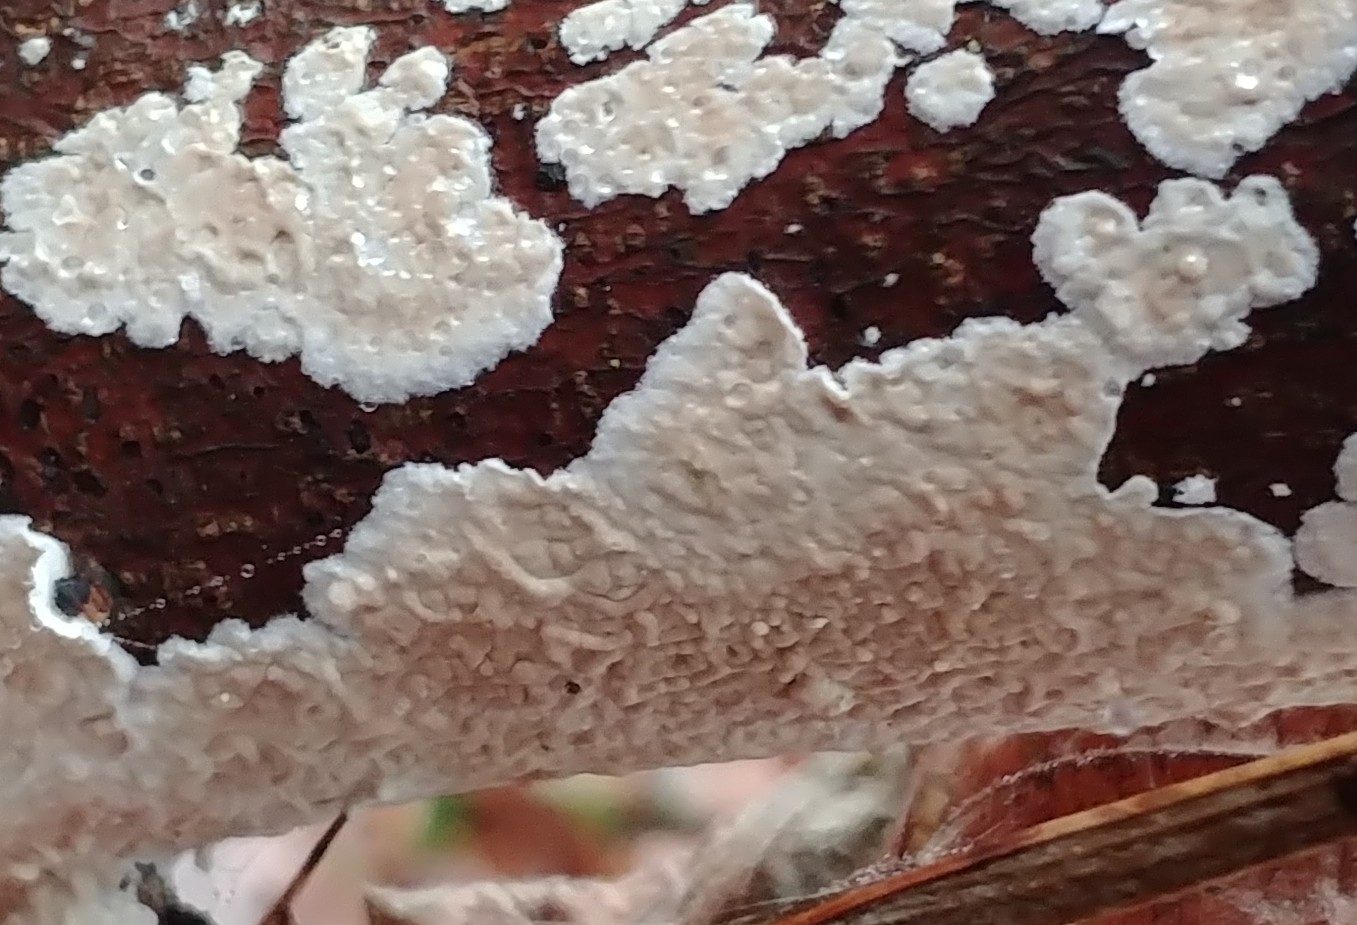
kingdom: Fungi
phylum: Basidiomycota
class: Agaricomycetes
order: Agaricales
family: Physalacriaceae
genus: Cylindrobasidium
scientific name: Cylindrobasidium evolvens
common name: sprækkehinde
